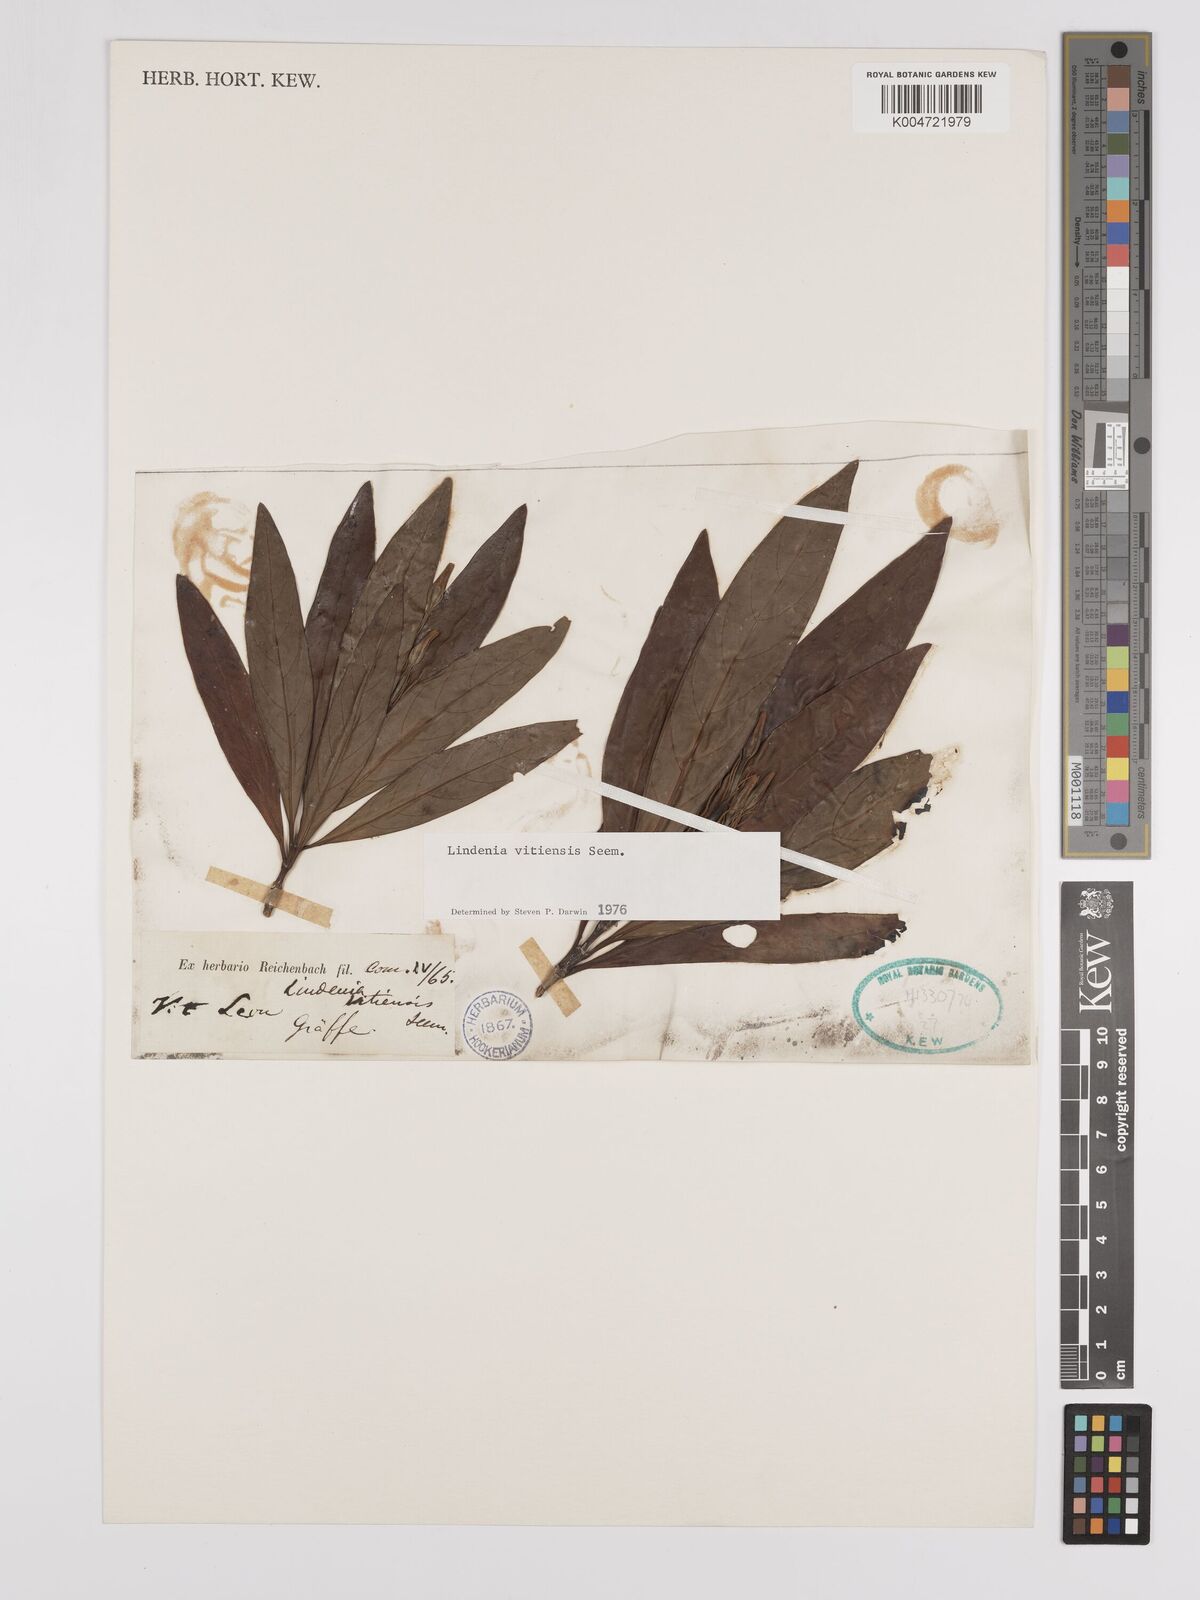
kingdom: Plantae
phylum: Tracheophyta
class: Magnoliopsida
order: Gentianales
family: Rubiaceae
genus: Augusta
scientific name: Augusta vitiensis
